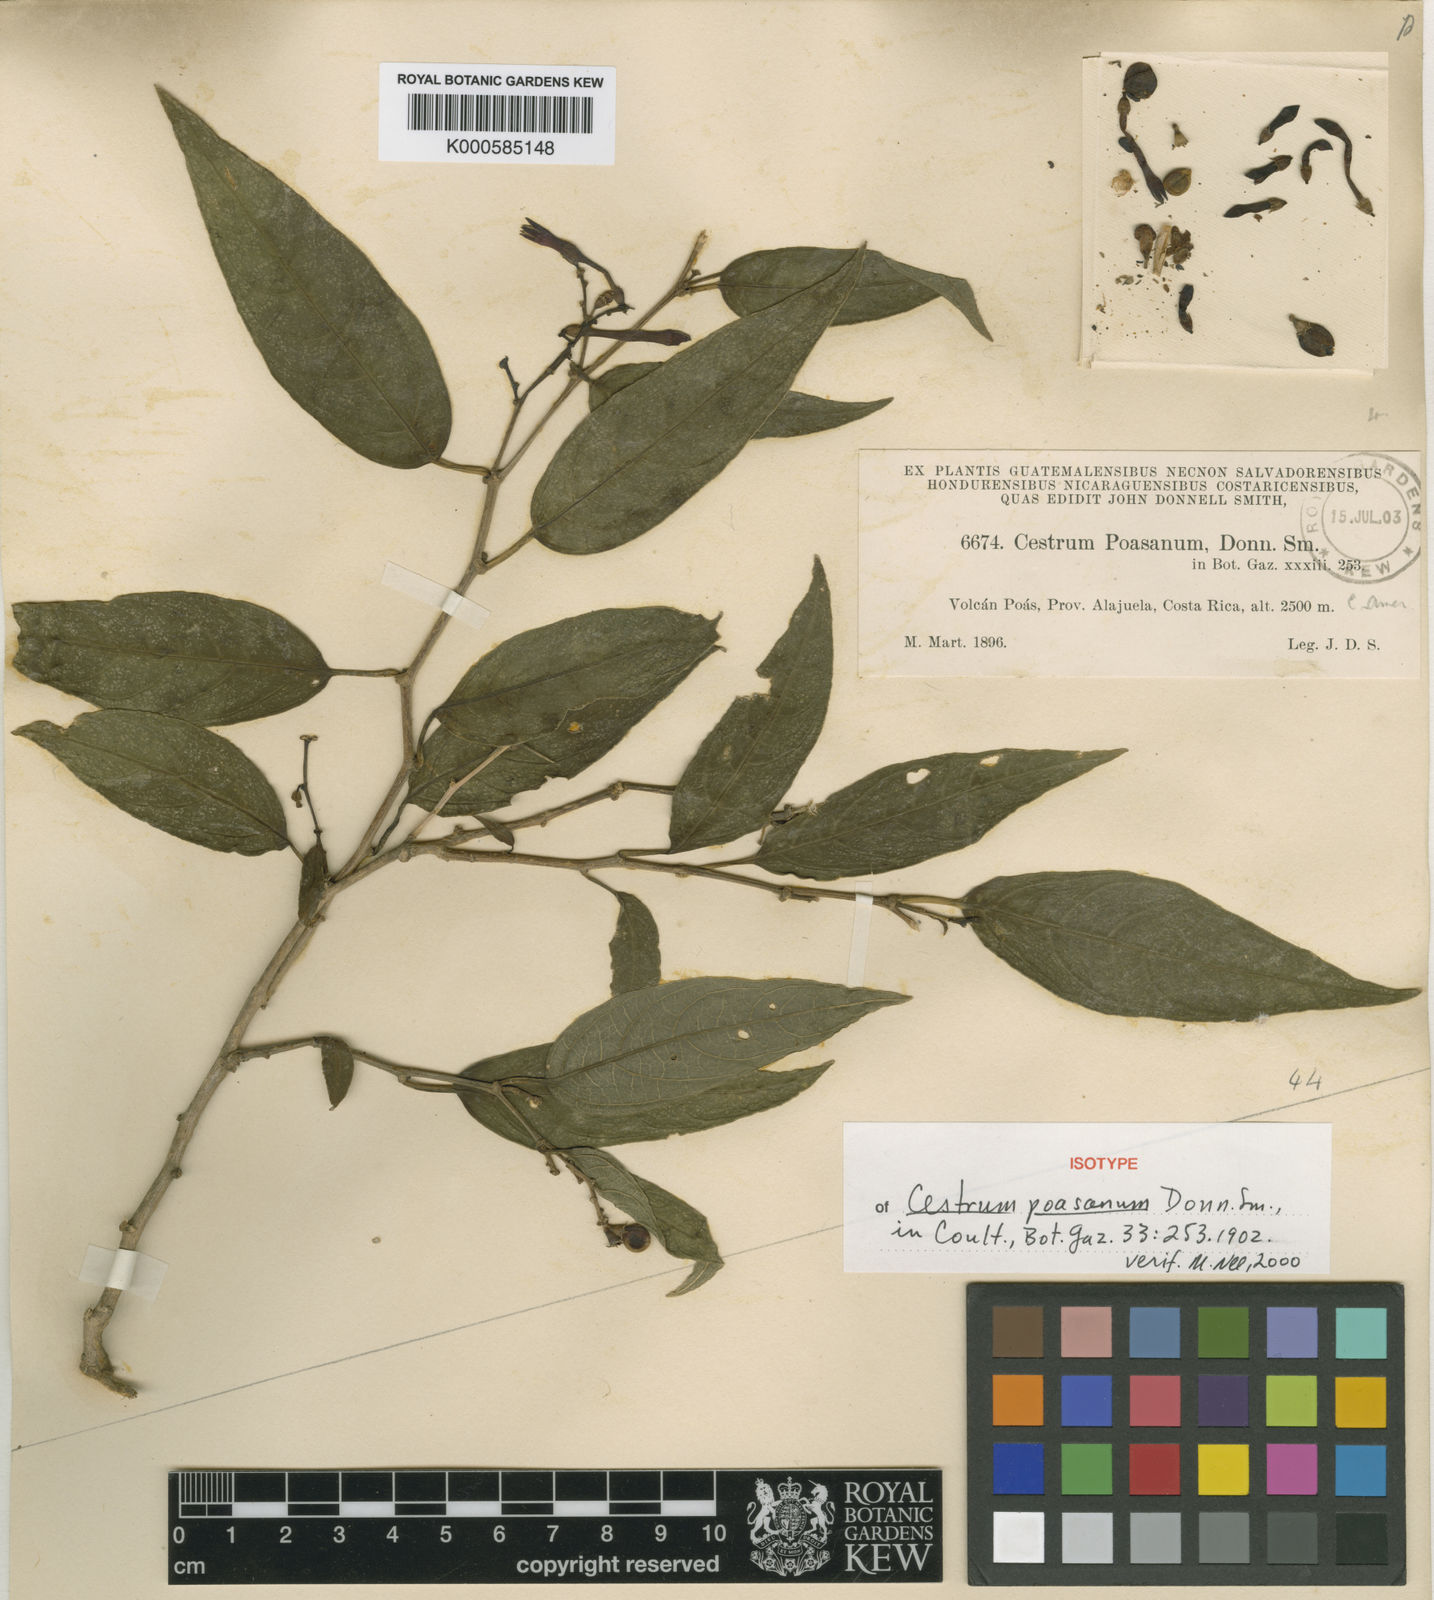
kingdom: Plantae
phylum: Tracheophyta
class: Magnoliopsida
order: Solanales
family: Solanaceae
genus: Cestrum
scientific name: Cestrum poasanum
